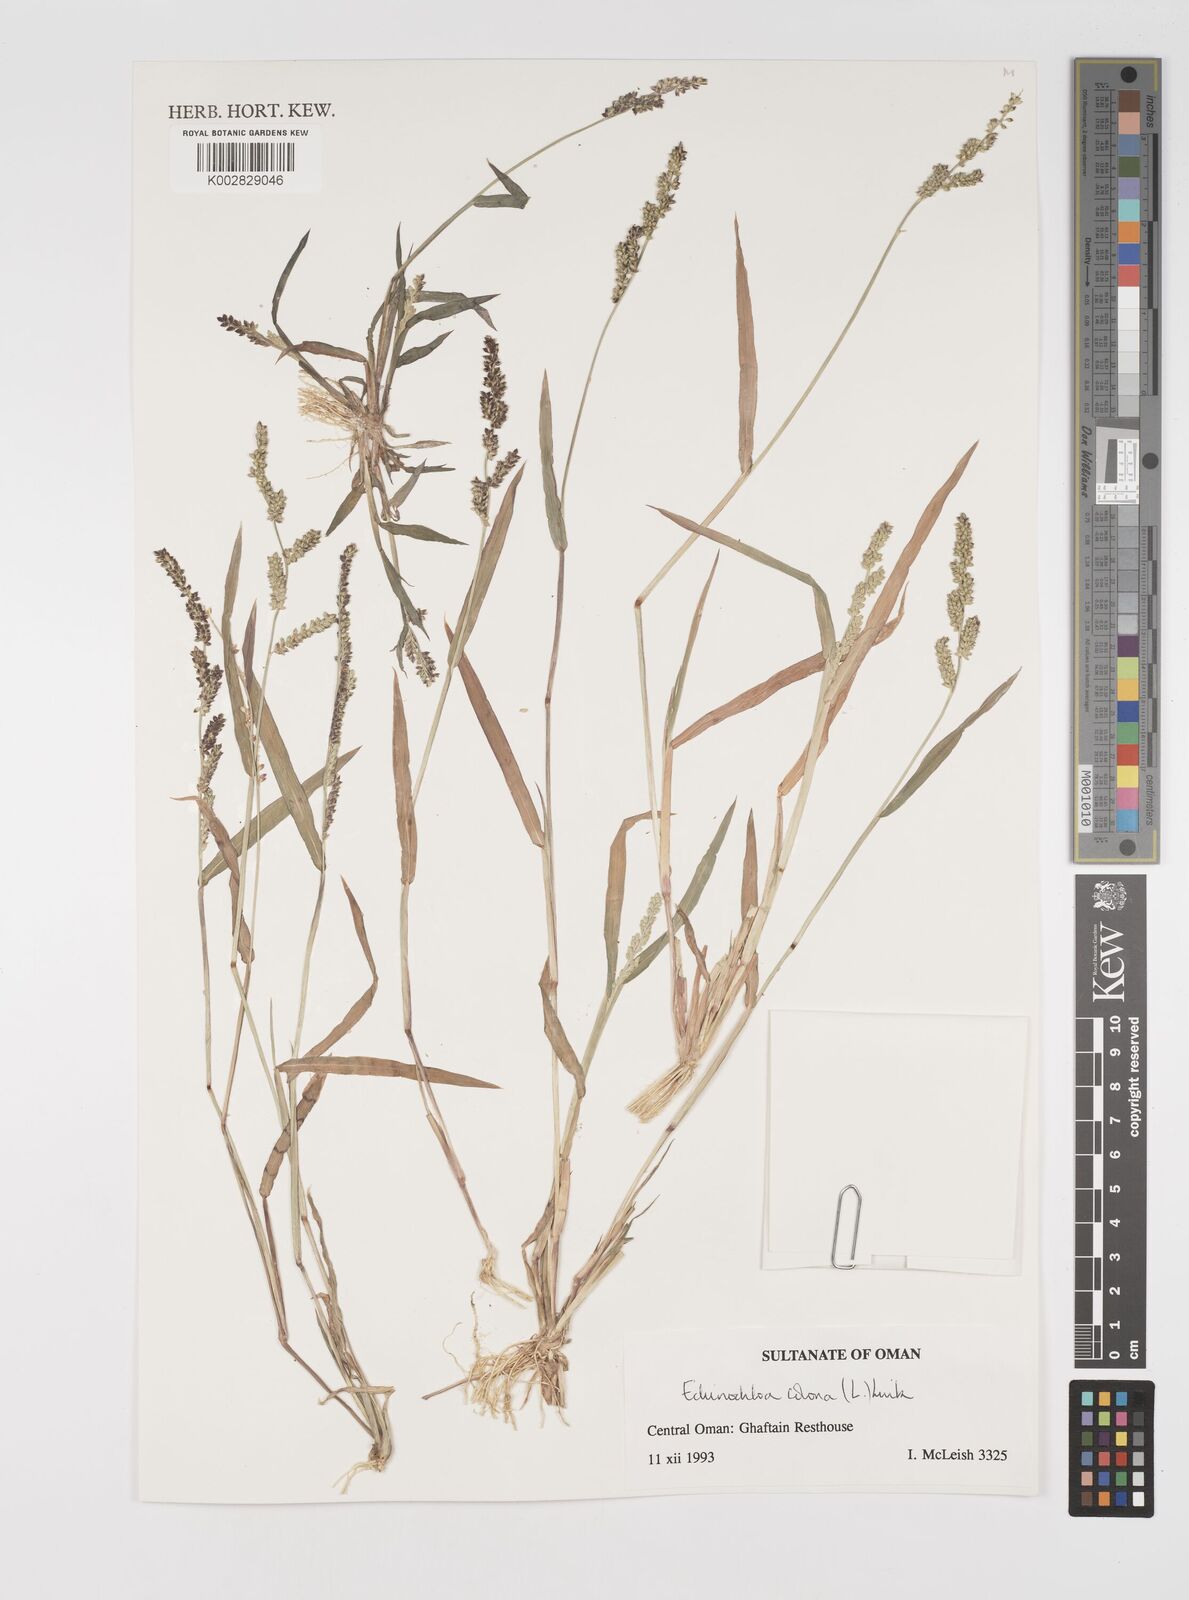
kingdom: Plantae
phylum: Tracheophyta
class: Liliopsida
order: Poales
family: Poaceae
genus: Echinochloa
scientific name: Echinochloa colonum
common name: Jungle rice
